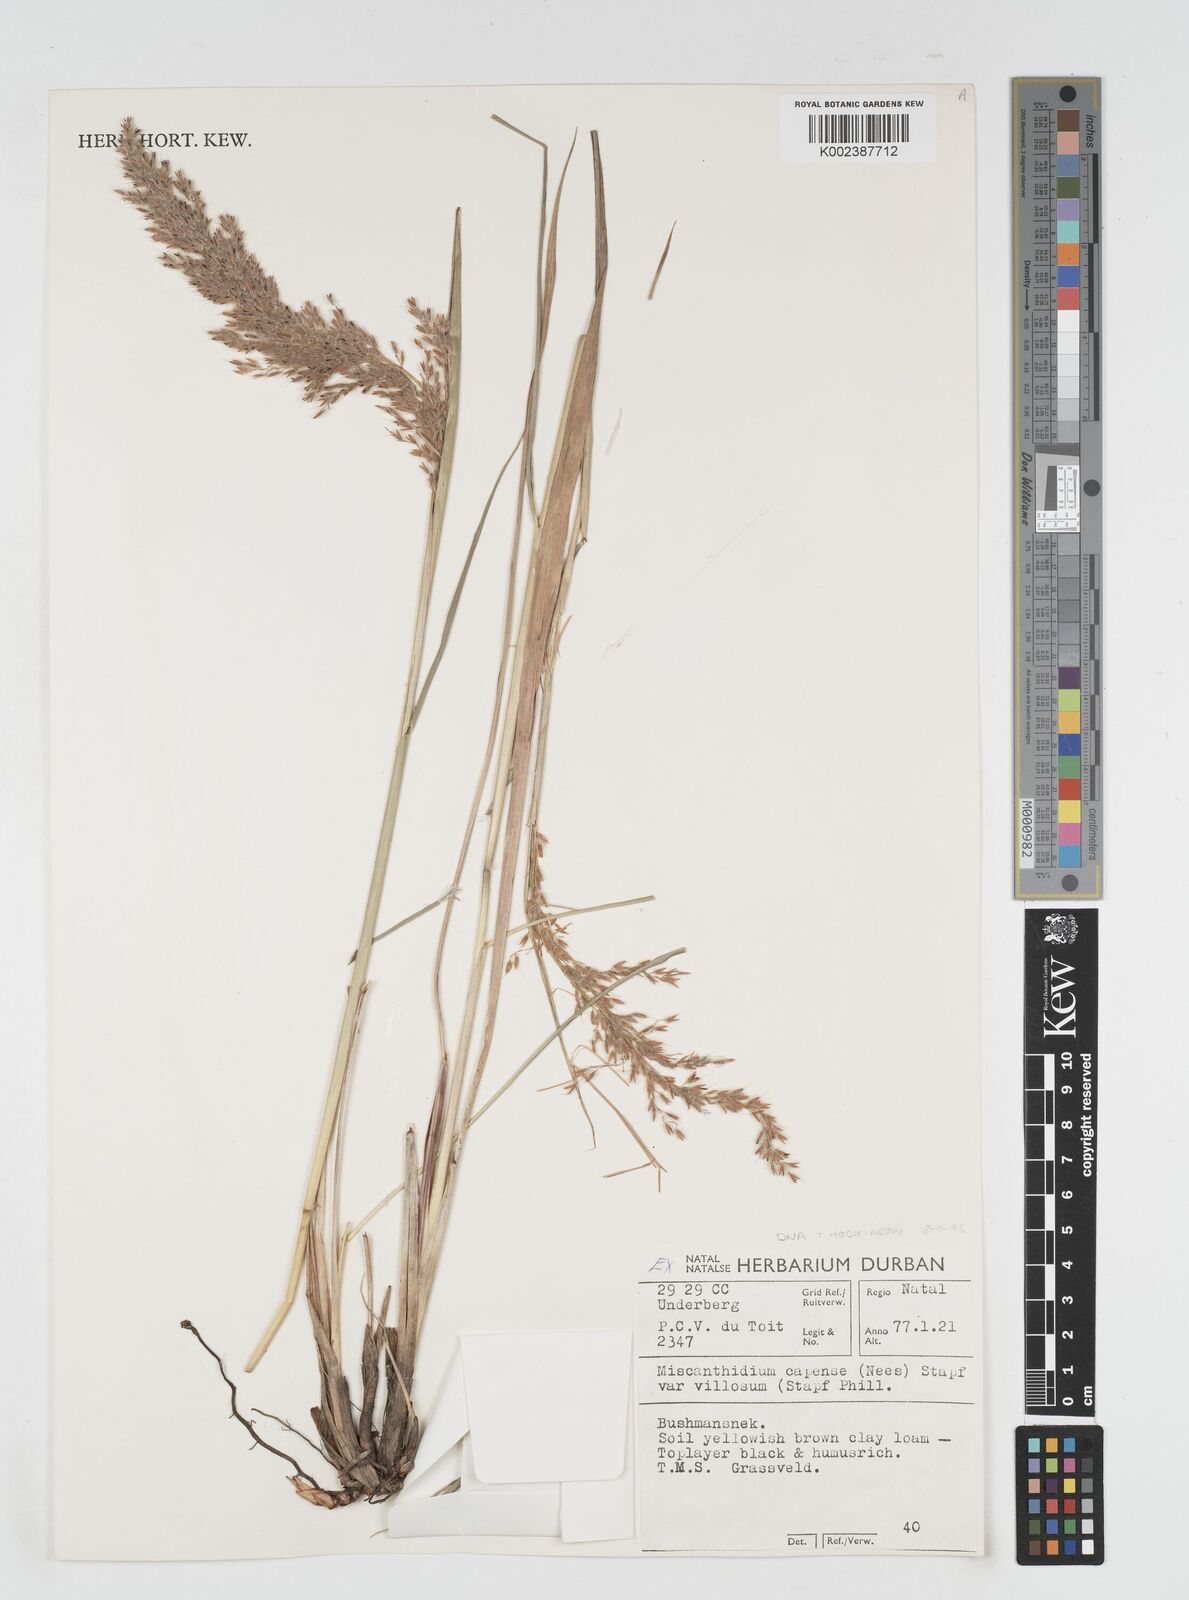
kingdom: Plantae
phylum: Tracheophyta
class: Liliopsida
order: Poales
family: Poaceae
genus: Miscanthus
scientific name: Miscanthus ecklonii
